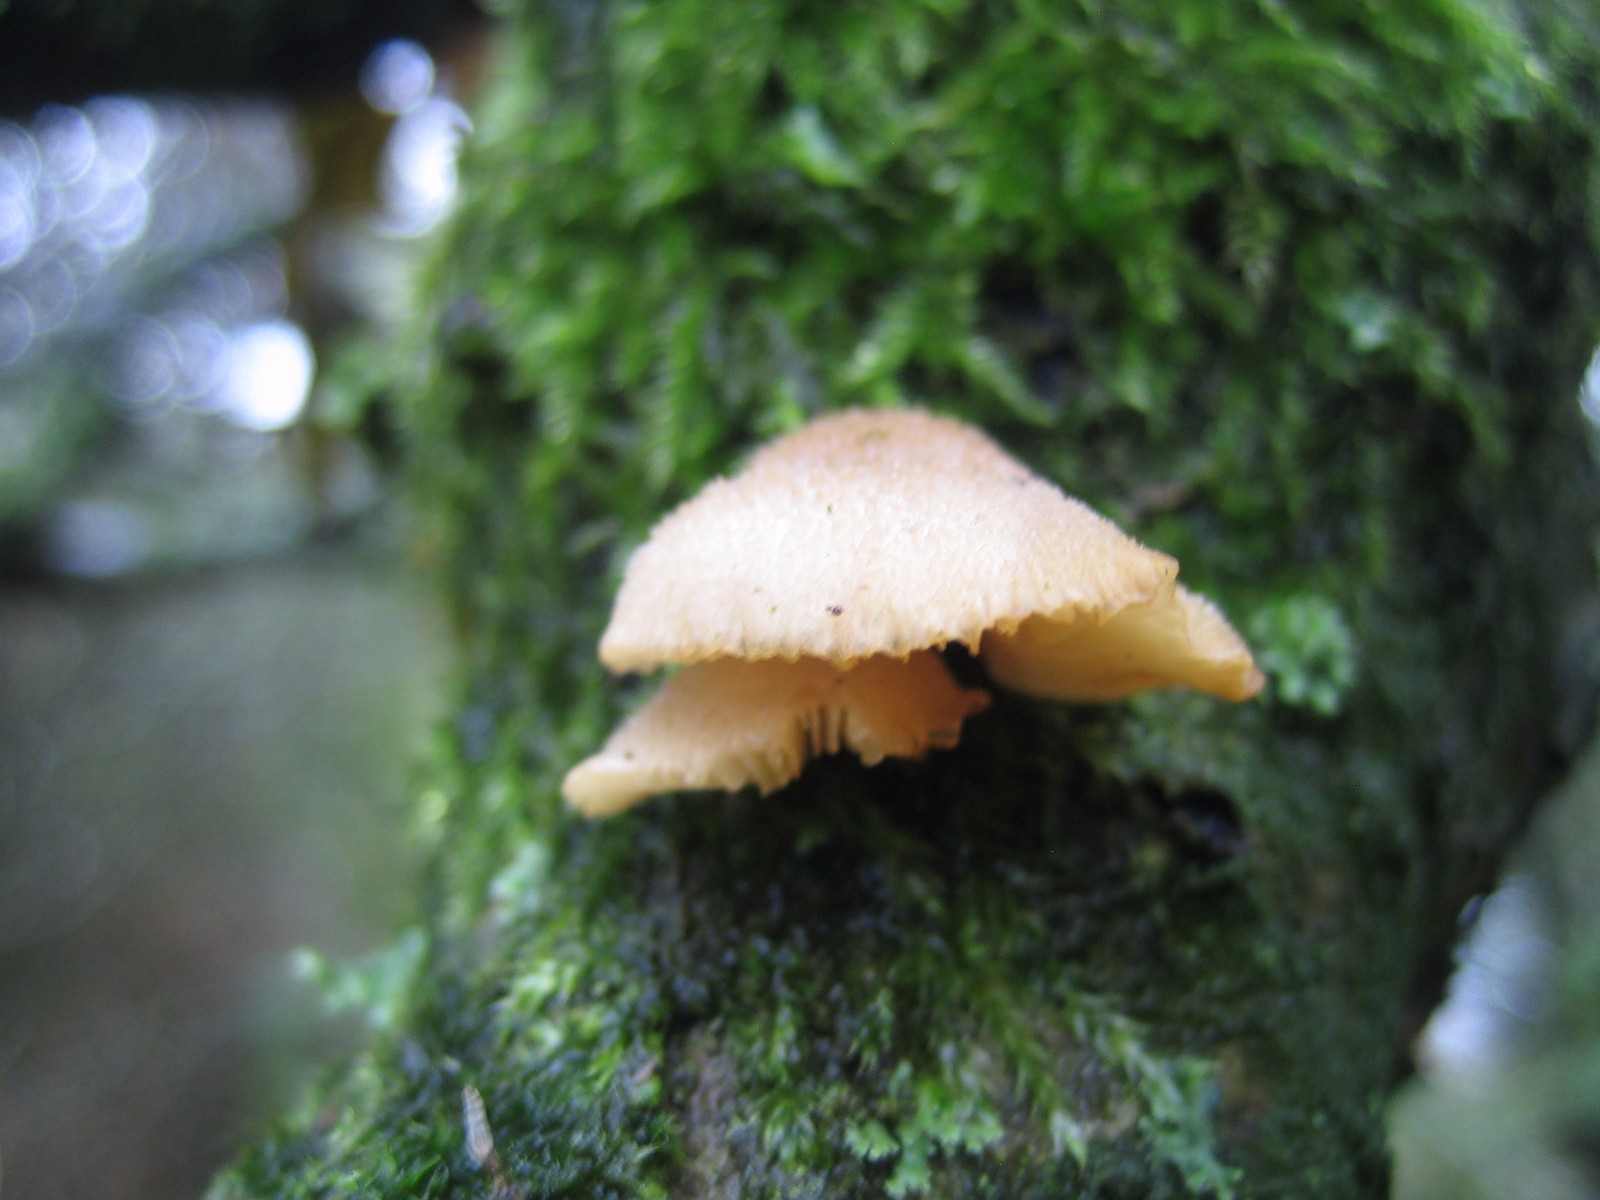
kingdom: Fungi
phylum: Basidiomycota
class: Agaricomycetes
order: Agaricales
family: Pleurotaceae
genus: Hohenbuehelia
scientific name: Hohenbuehelia
